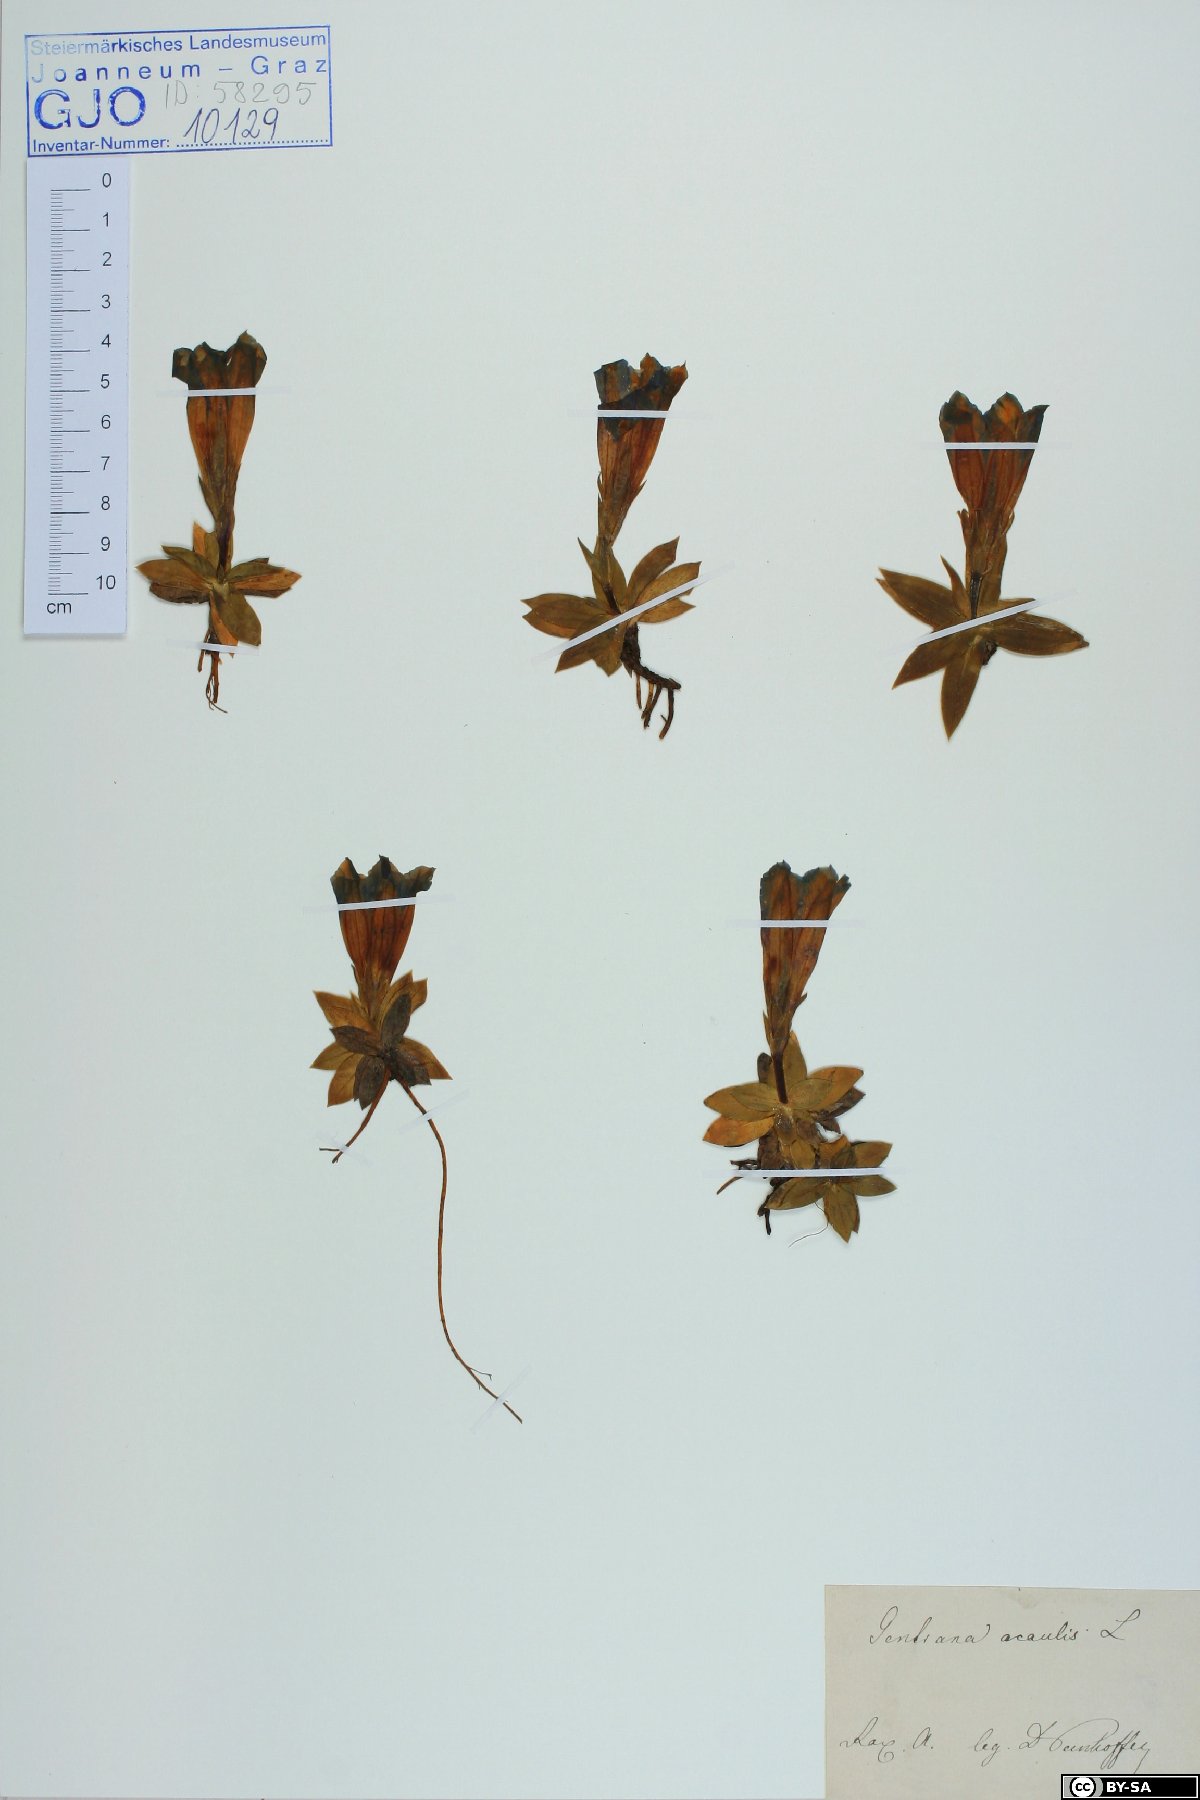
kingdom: Plantae
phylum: Tracheophyta
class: Magnoliopsida
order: Gentianales
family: Gentianaceae
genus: Gentiana
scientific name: Gentiana clusii
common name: Trumpet gentian
